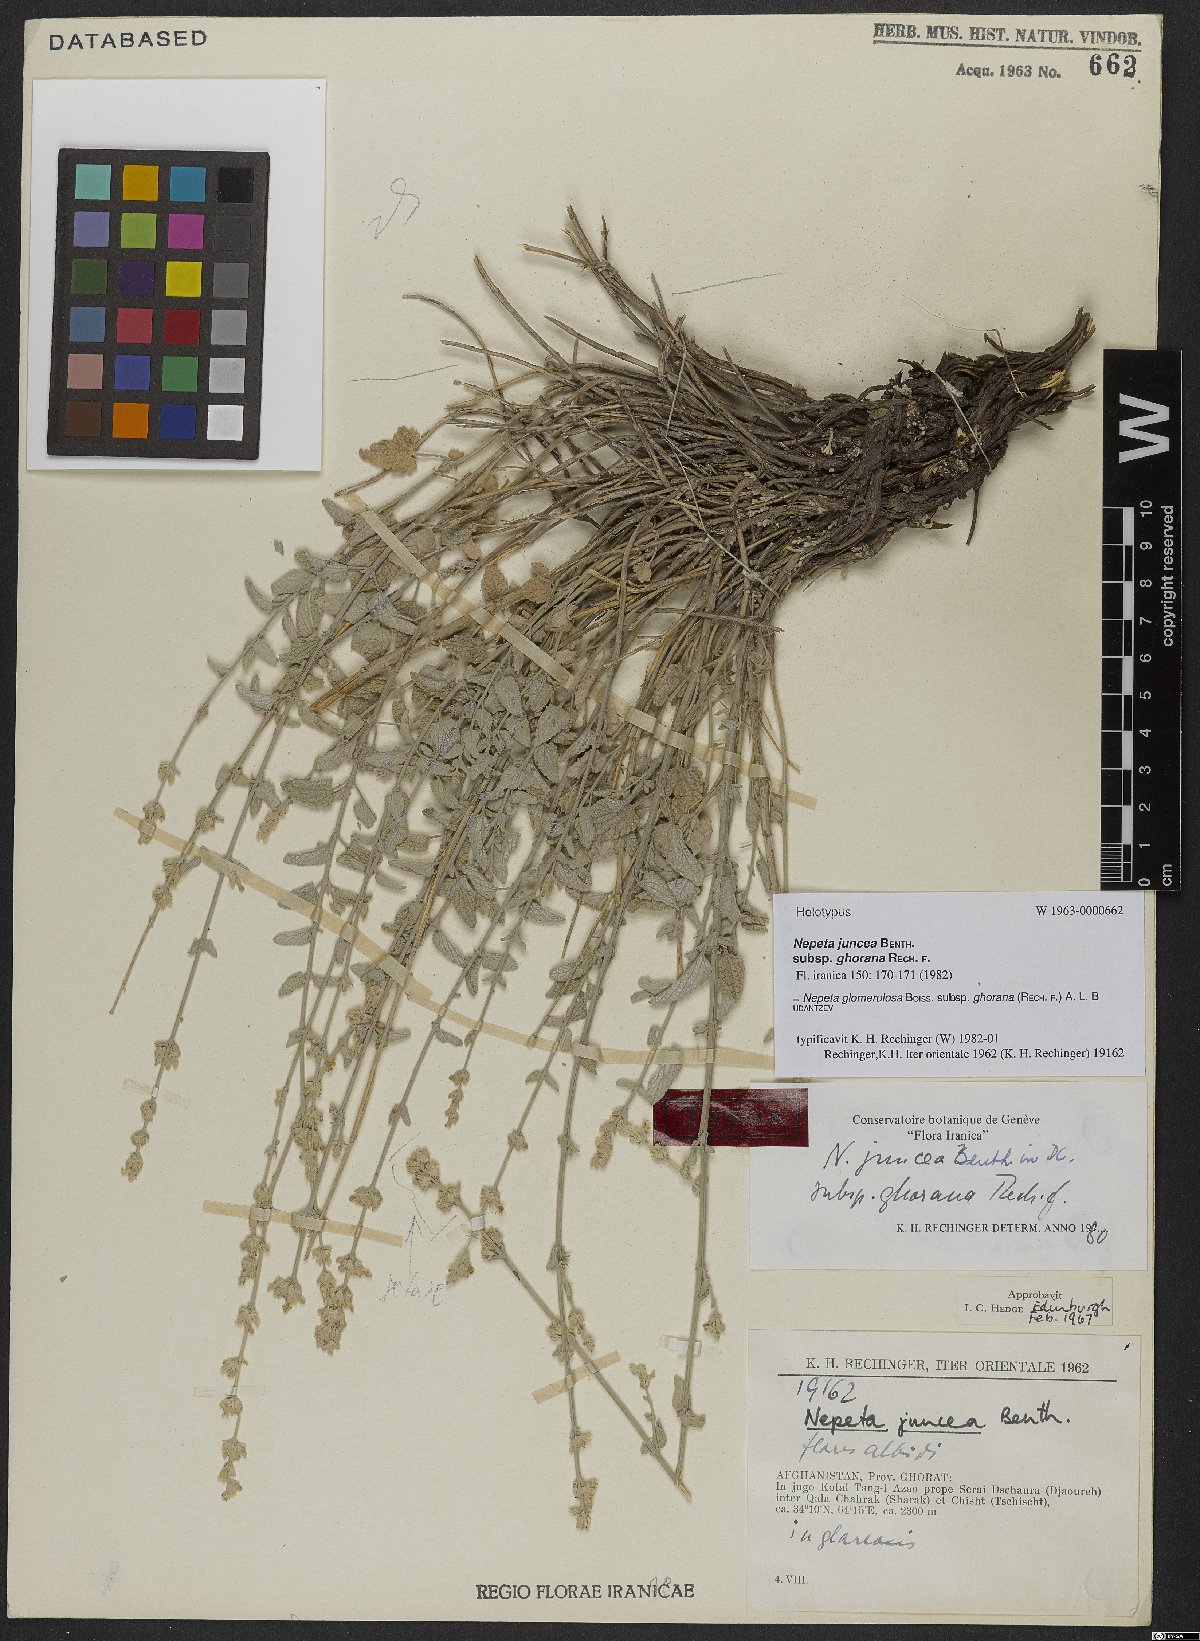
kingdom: Plantae
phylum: Tracheophyta
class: Magnoliopsida
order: Lamiales
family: Lamiaceae
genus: Nepeta
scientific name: Nepeta glomerulosa
